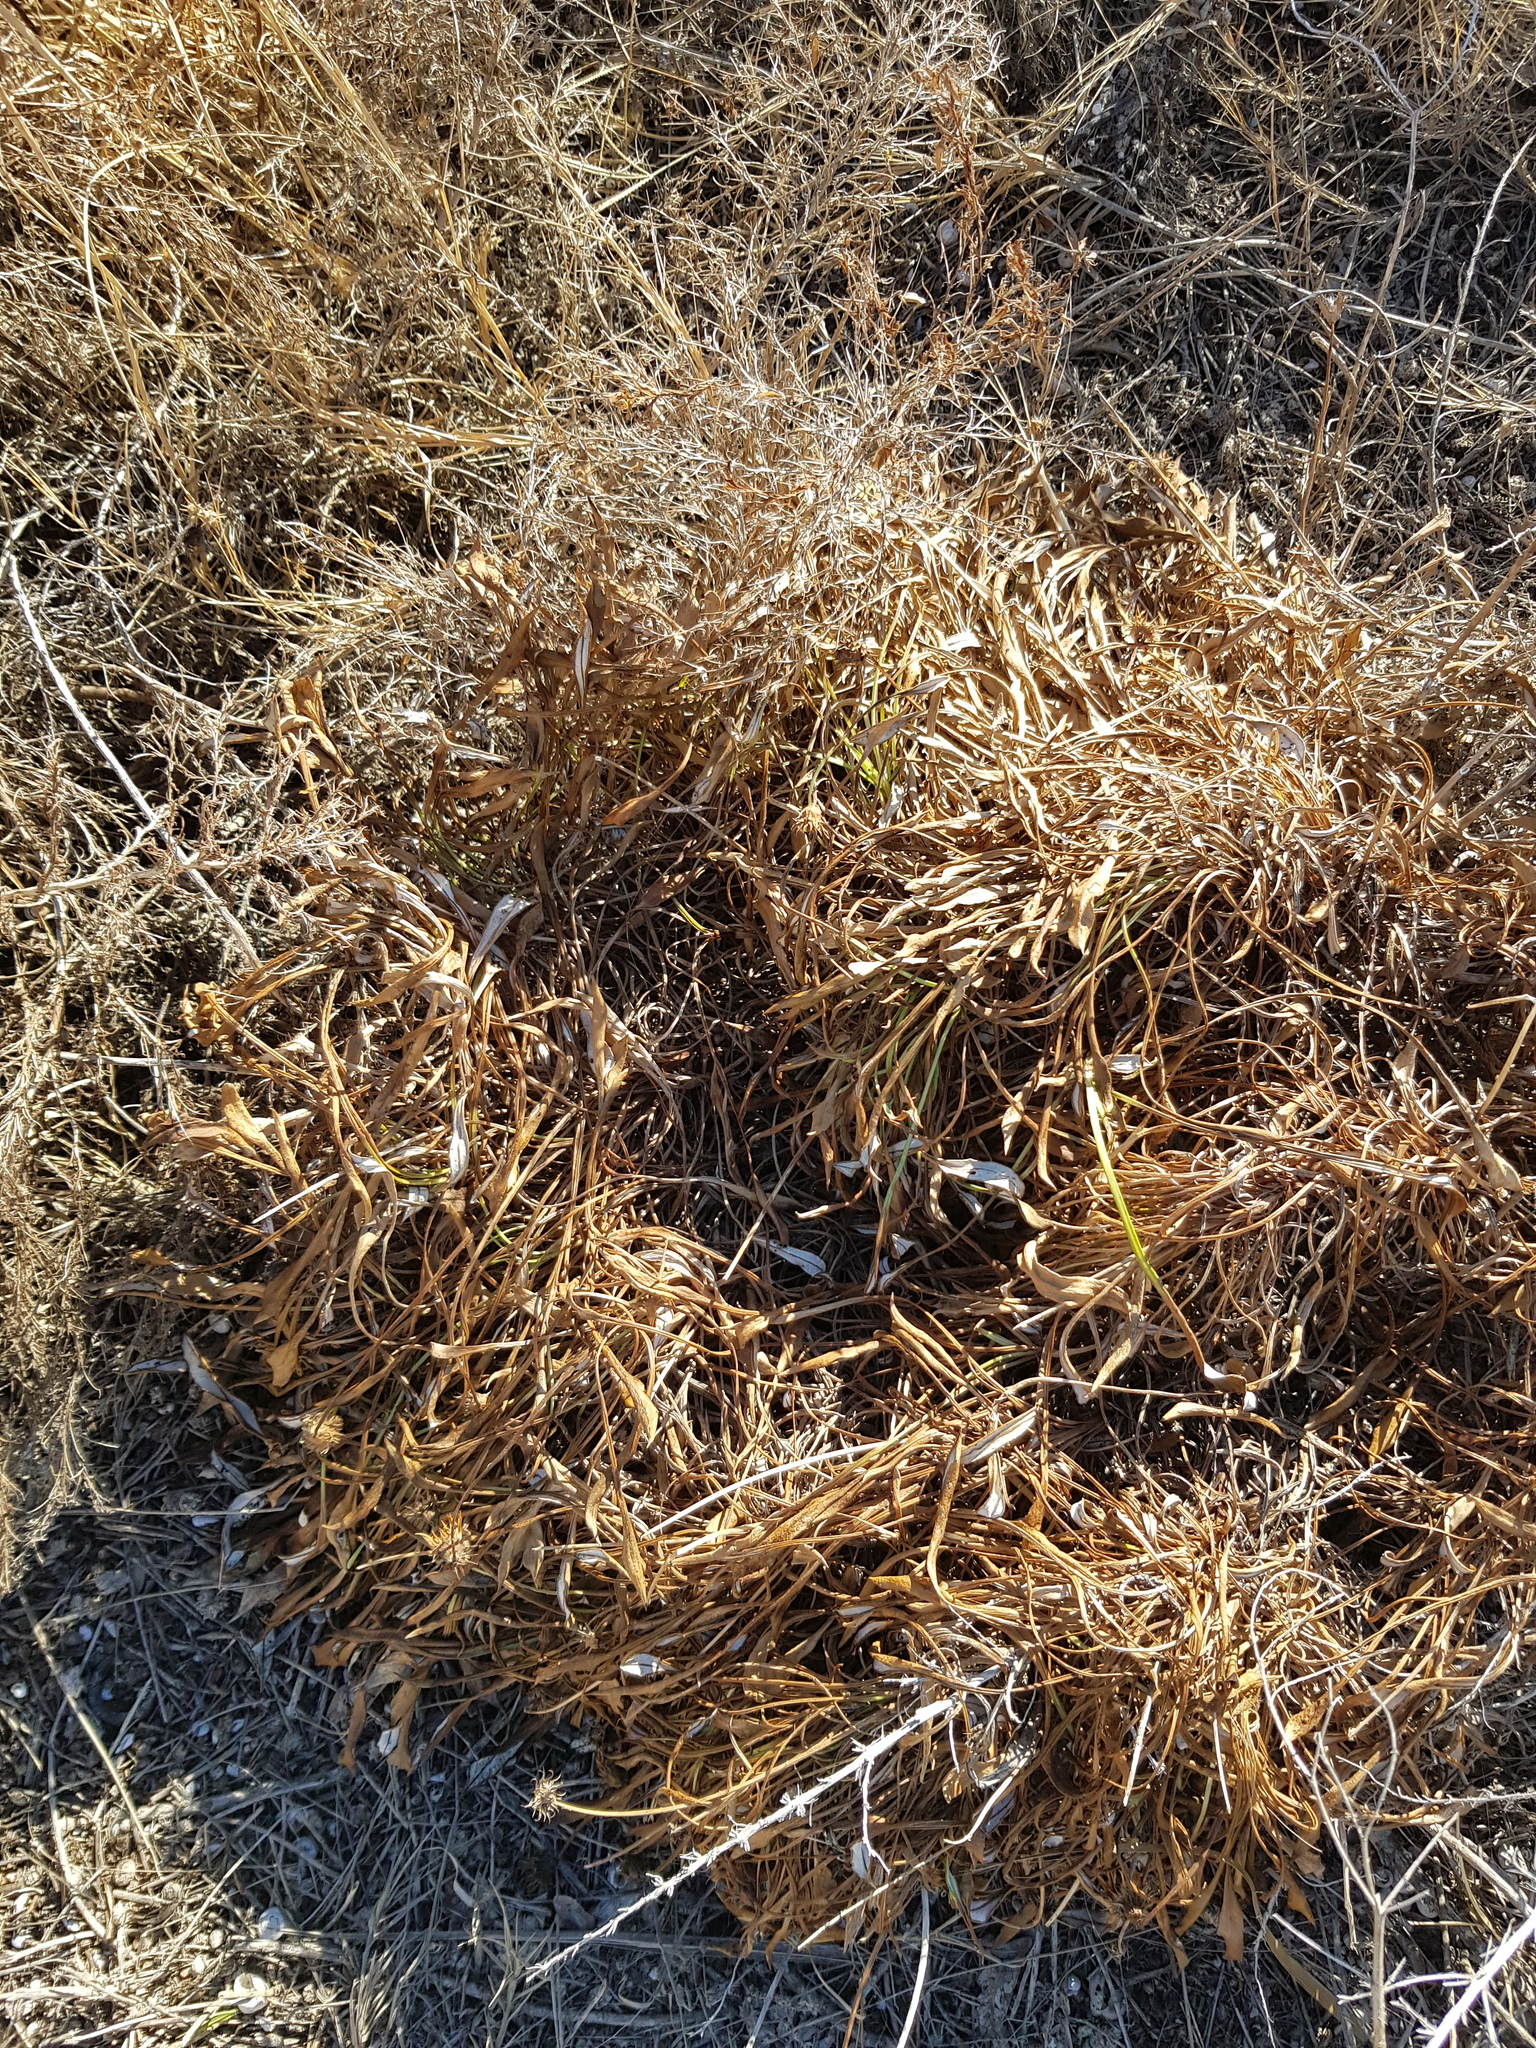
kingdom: Plantae
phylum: Tracheophyta
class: Magnoliopsida
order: Asterales
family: Asteraceae
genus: Gazania
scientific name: Gazania rigens
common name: Treasureflower
